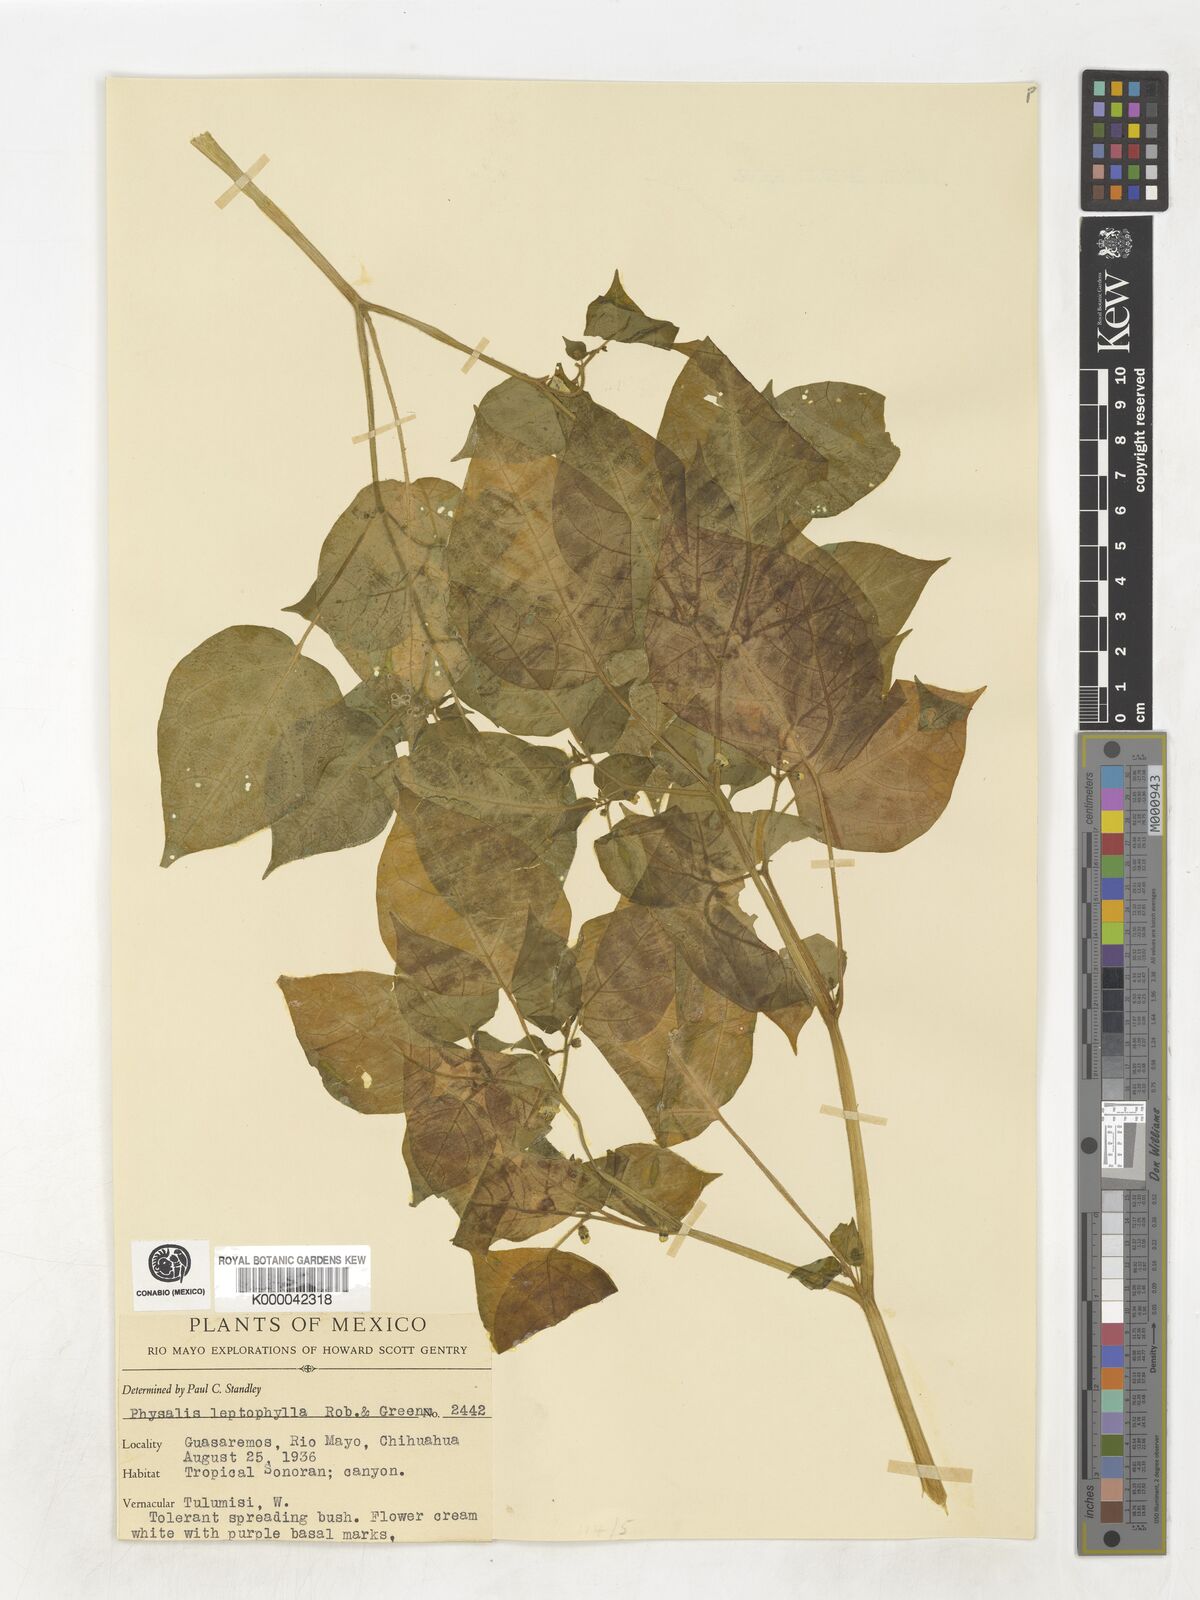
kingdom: Plantae
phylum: Tracheophyta
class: Magnoliopsida
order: Solanales
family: Solanaceae
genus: Physalis
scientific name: Physalis leptophylla
